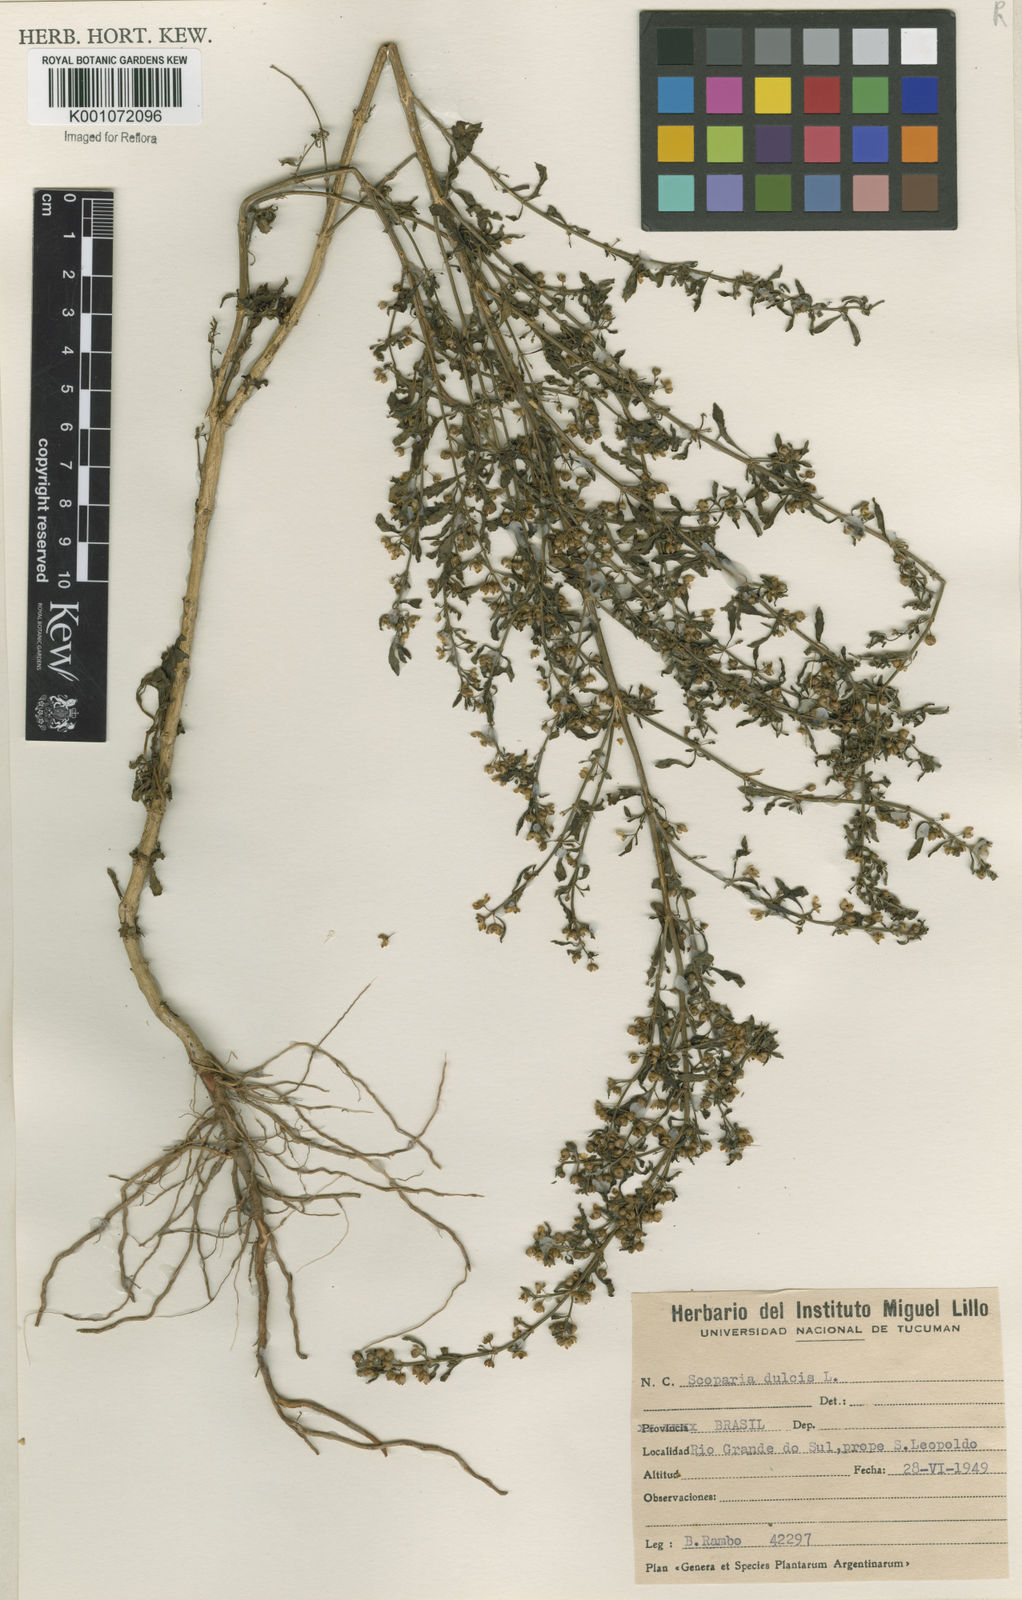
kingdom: Plantae
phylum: Tracheophyta
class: Magnoliopsida
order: Lamiales
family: Plantaginaceae
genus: Scoparia
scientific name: Scoparia dulcis
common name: Scoparia-weed
